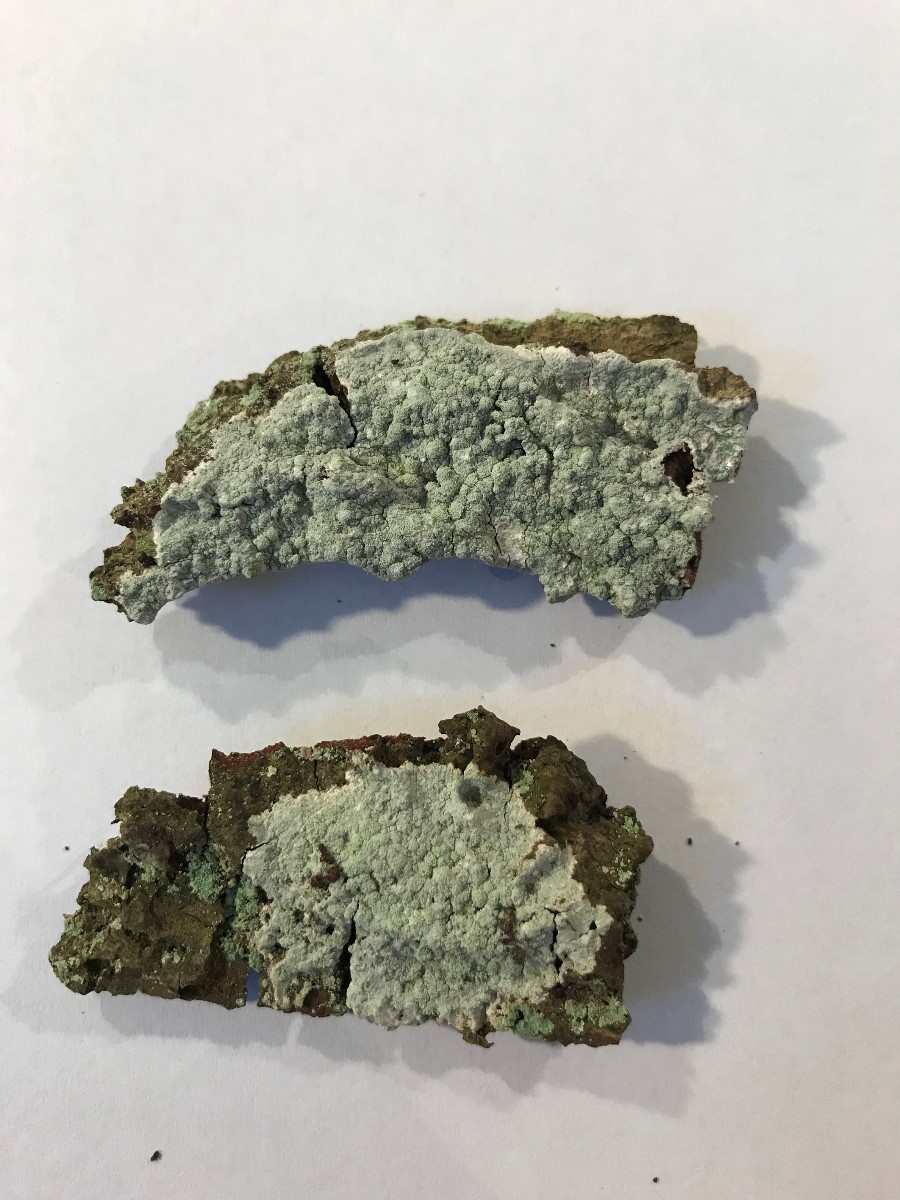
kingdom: Fungi
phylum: Ascomycota
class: Lecanoromycetes
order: Lecanorales
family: Stereocaulaceae
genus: Lepraria
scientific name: Lepraria lobificans
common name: grøn støvlav
